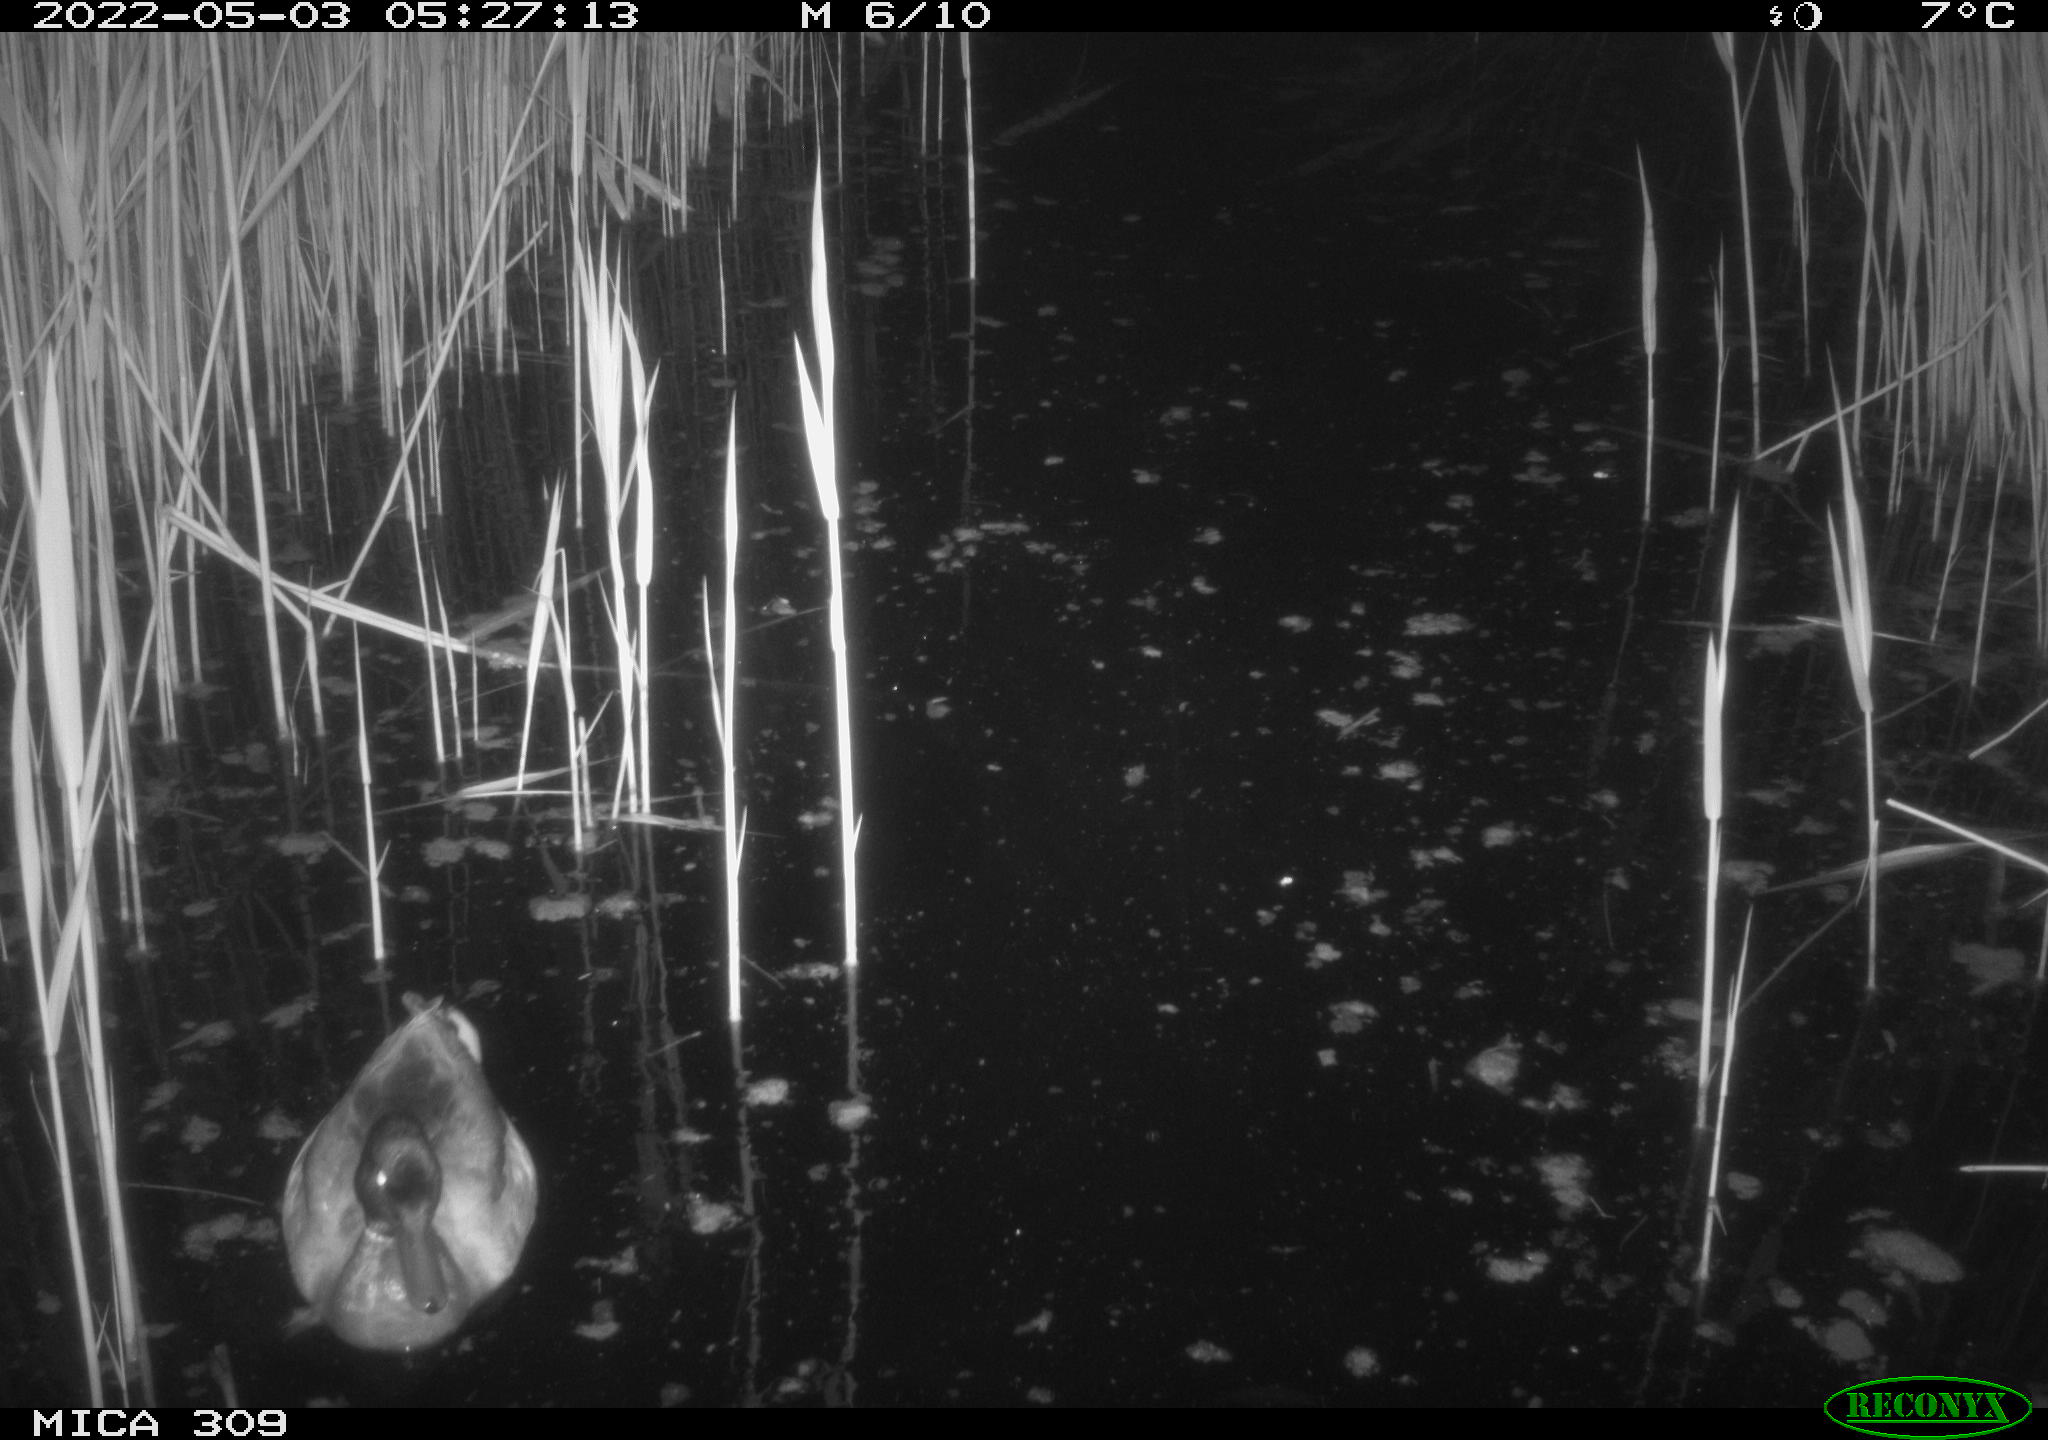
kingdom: Animalia
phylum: Chordata
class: Aves
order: Gruiformes
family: Rallidae
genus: Gallinula
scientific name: Gallinula chloropus
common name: Common moorhen
